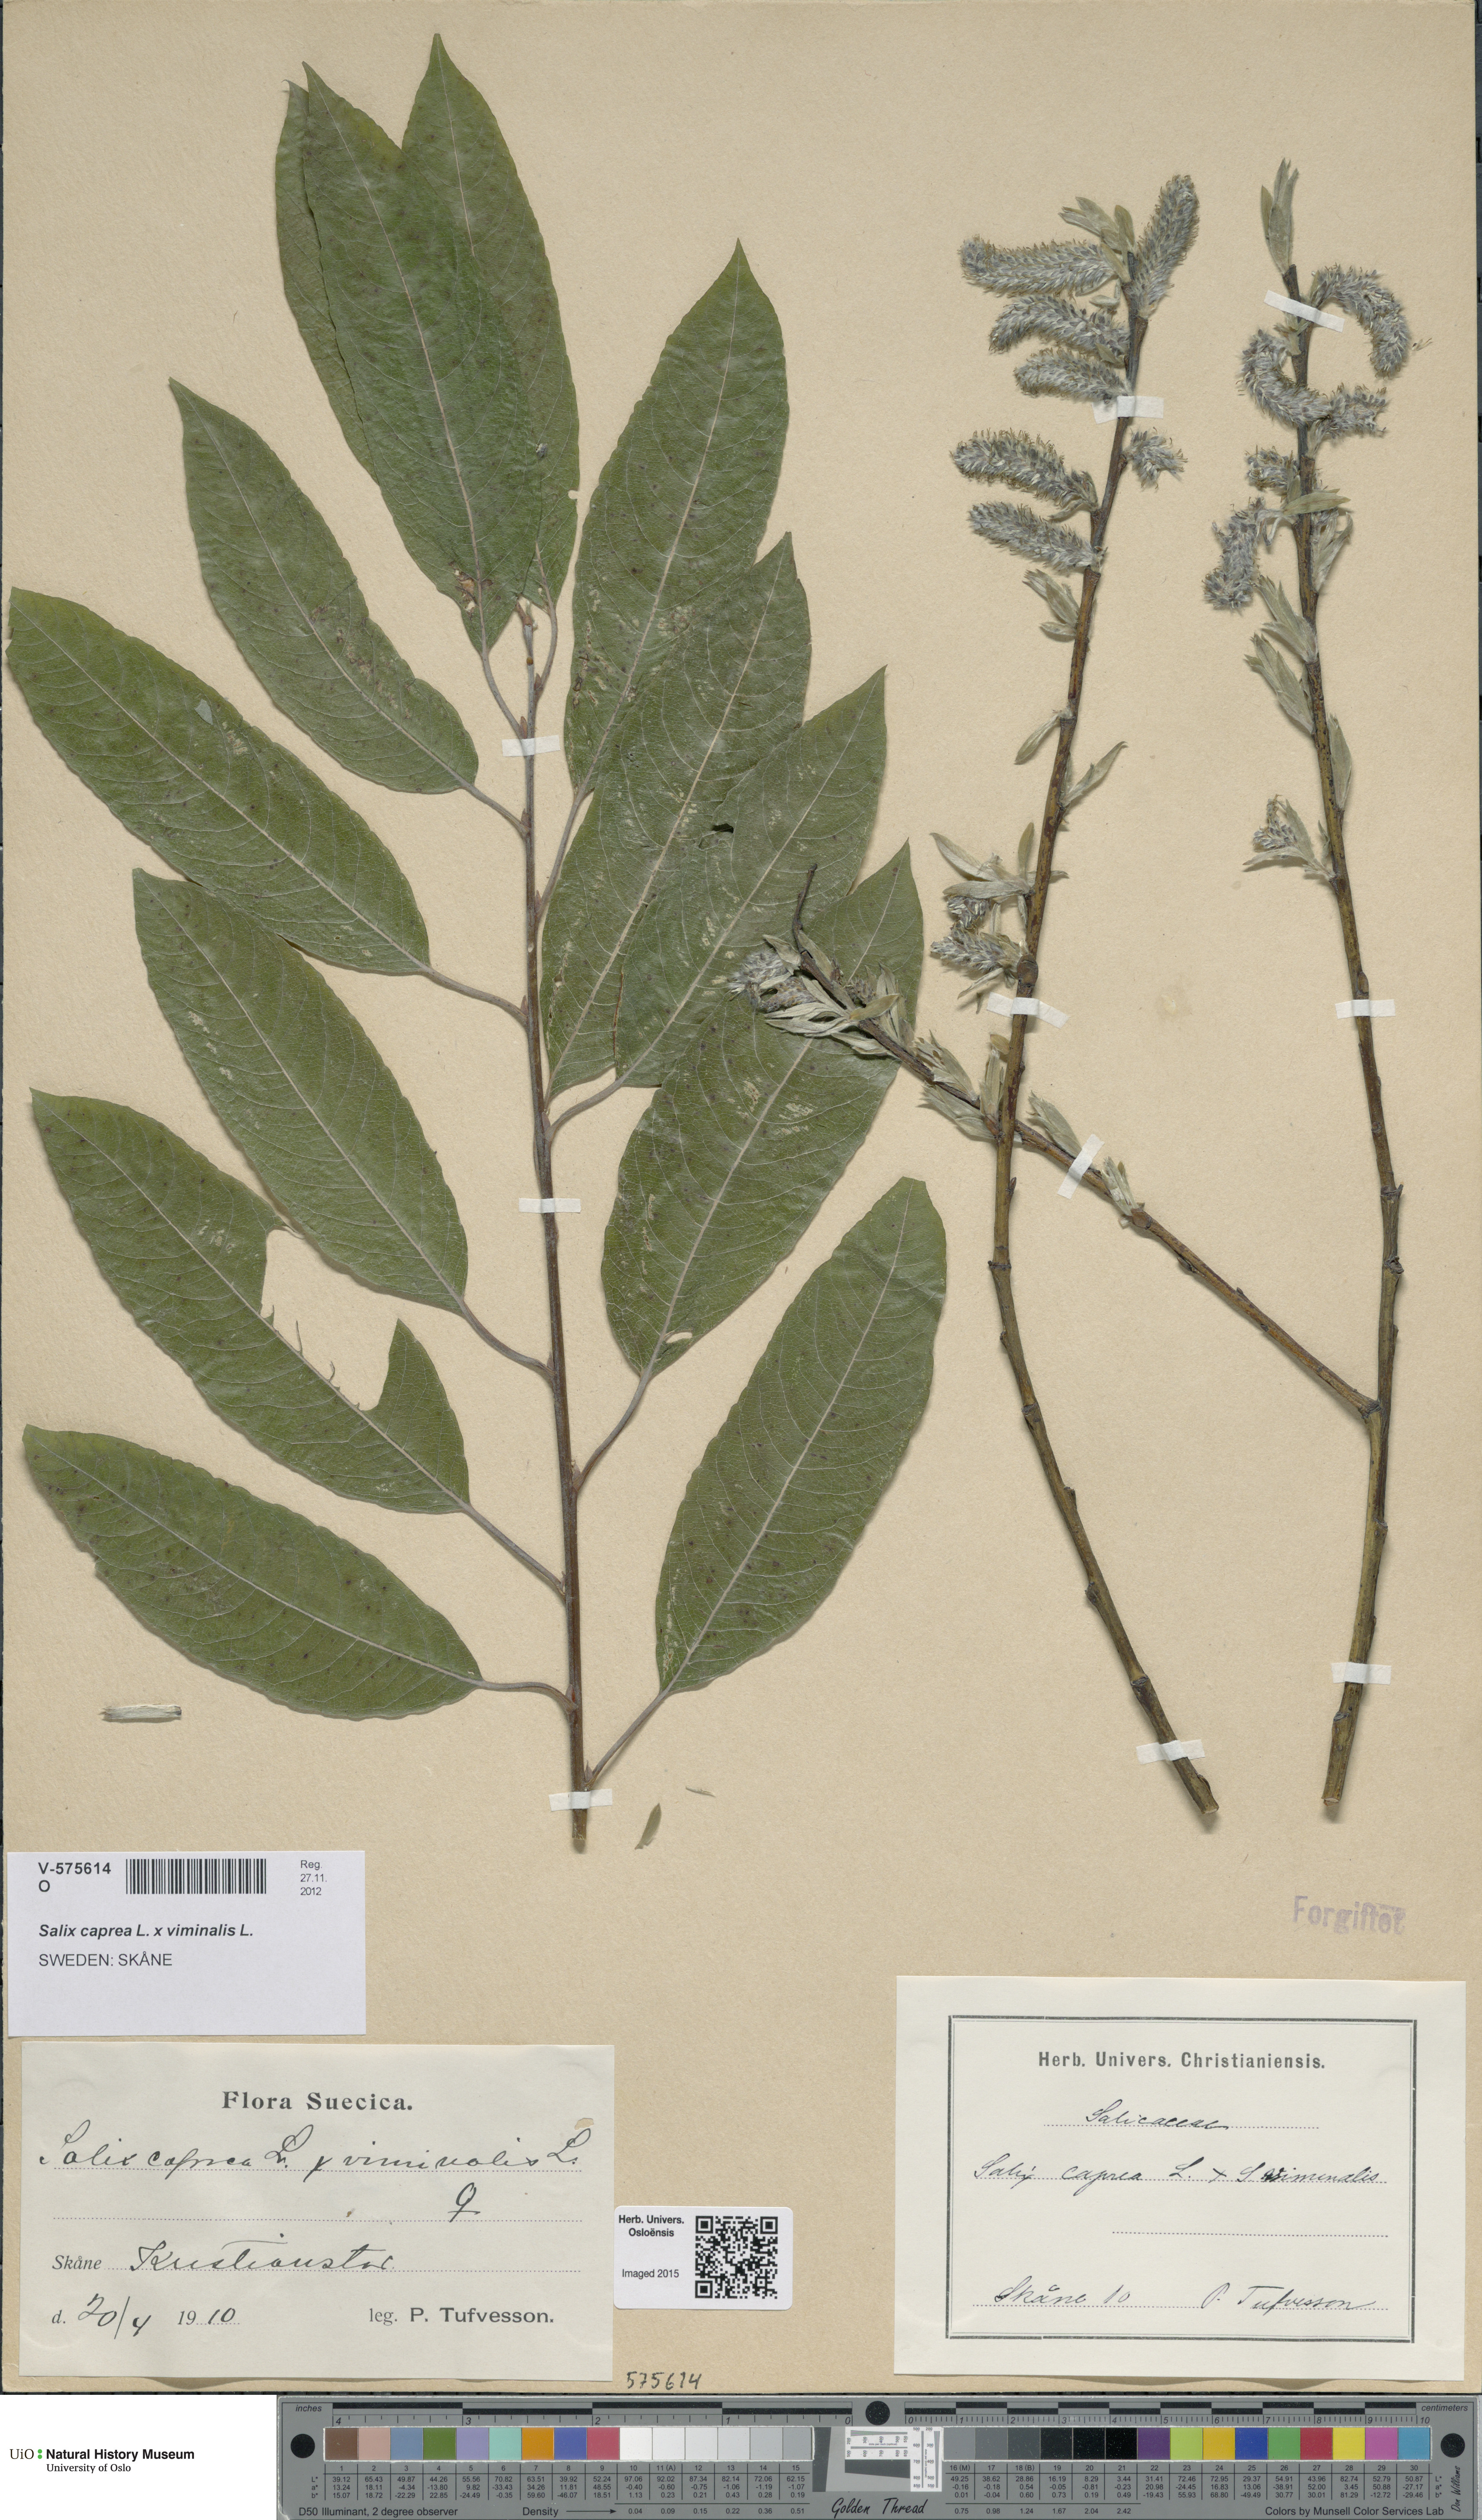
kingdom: Plantae
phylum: Tracheophyta
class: Magnoliopsida
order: Malpighiales
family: Salicaceae
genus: Salix
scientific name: Salix
